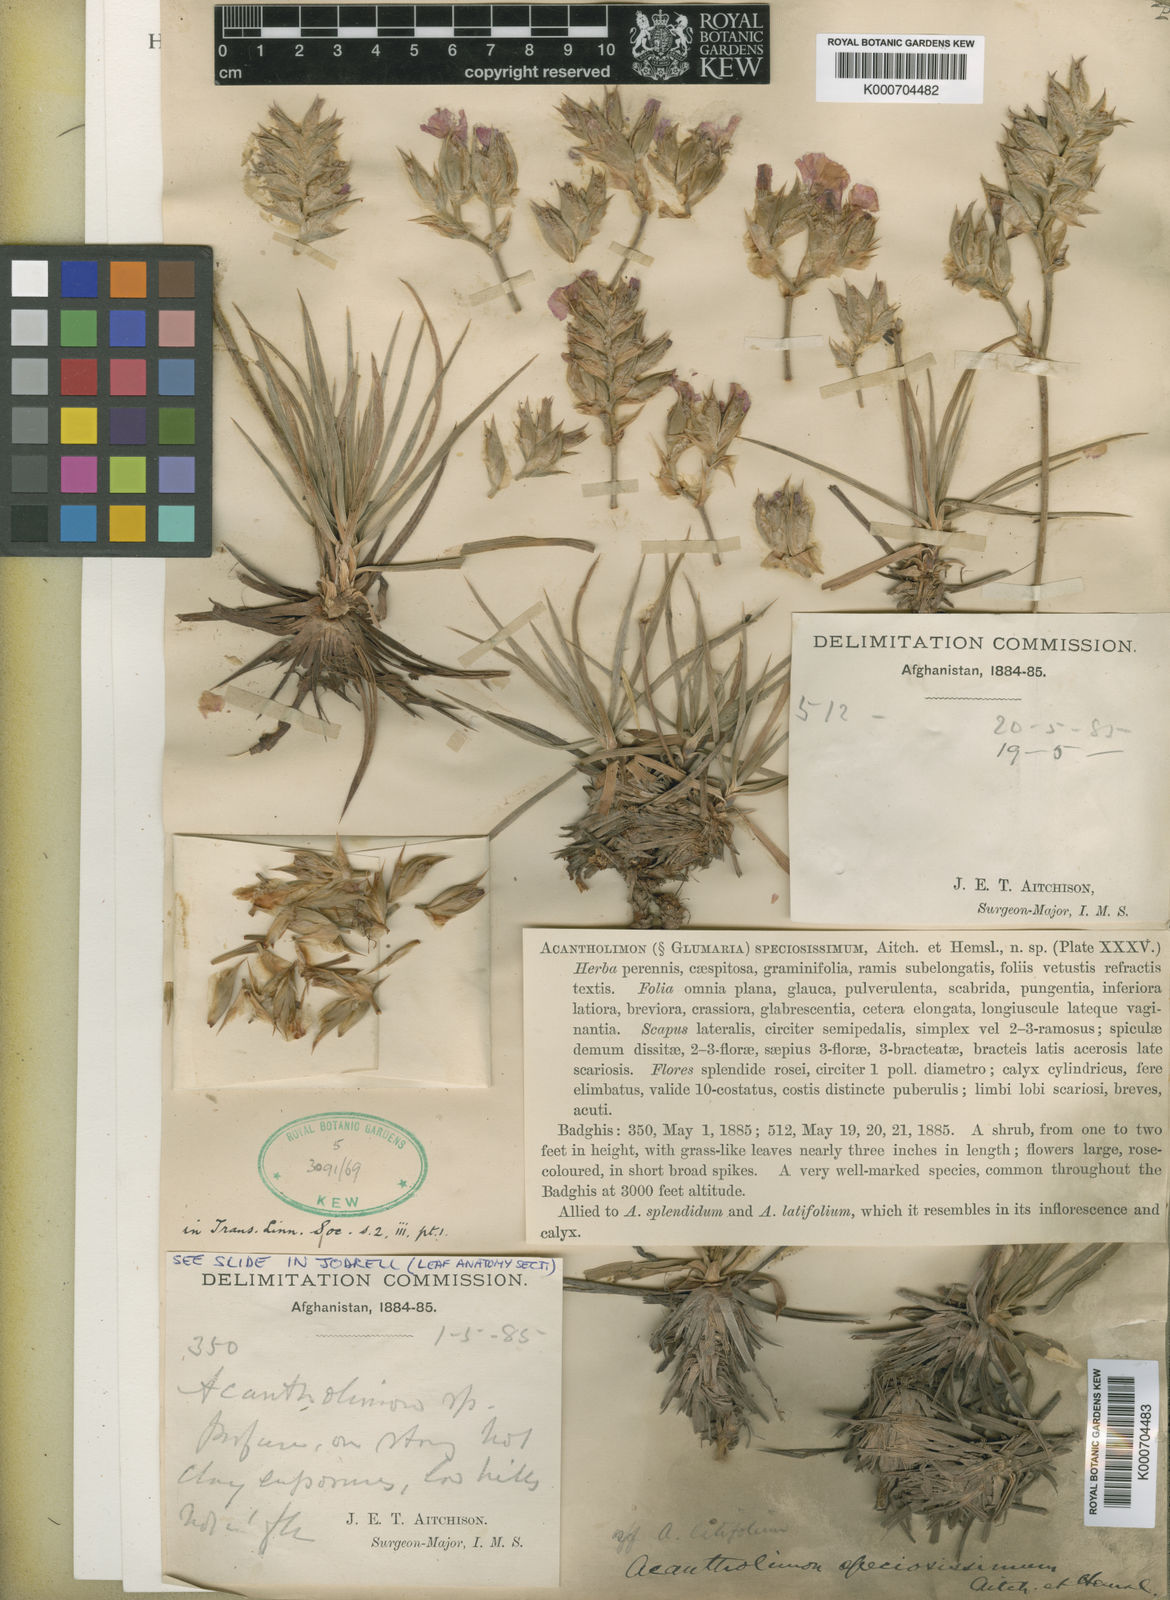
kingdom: Plantae
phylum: Tracheophyta
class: Magnoliopsida
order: Caryophyllales
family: Plumbaginaceae
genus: Acantholimon
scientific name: Acantholimon speciosissimum
